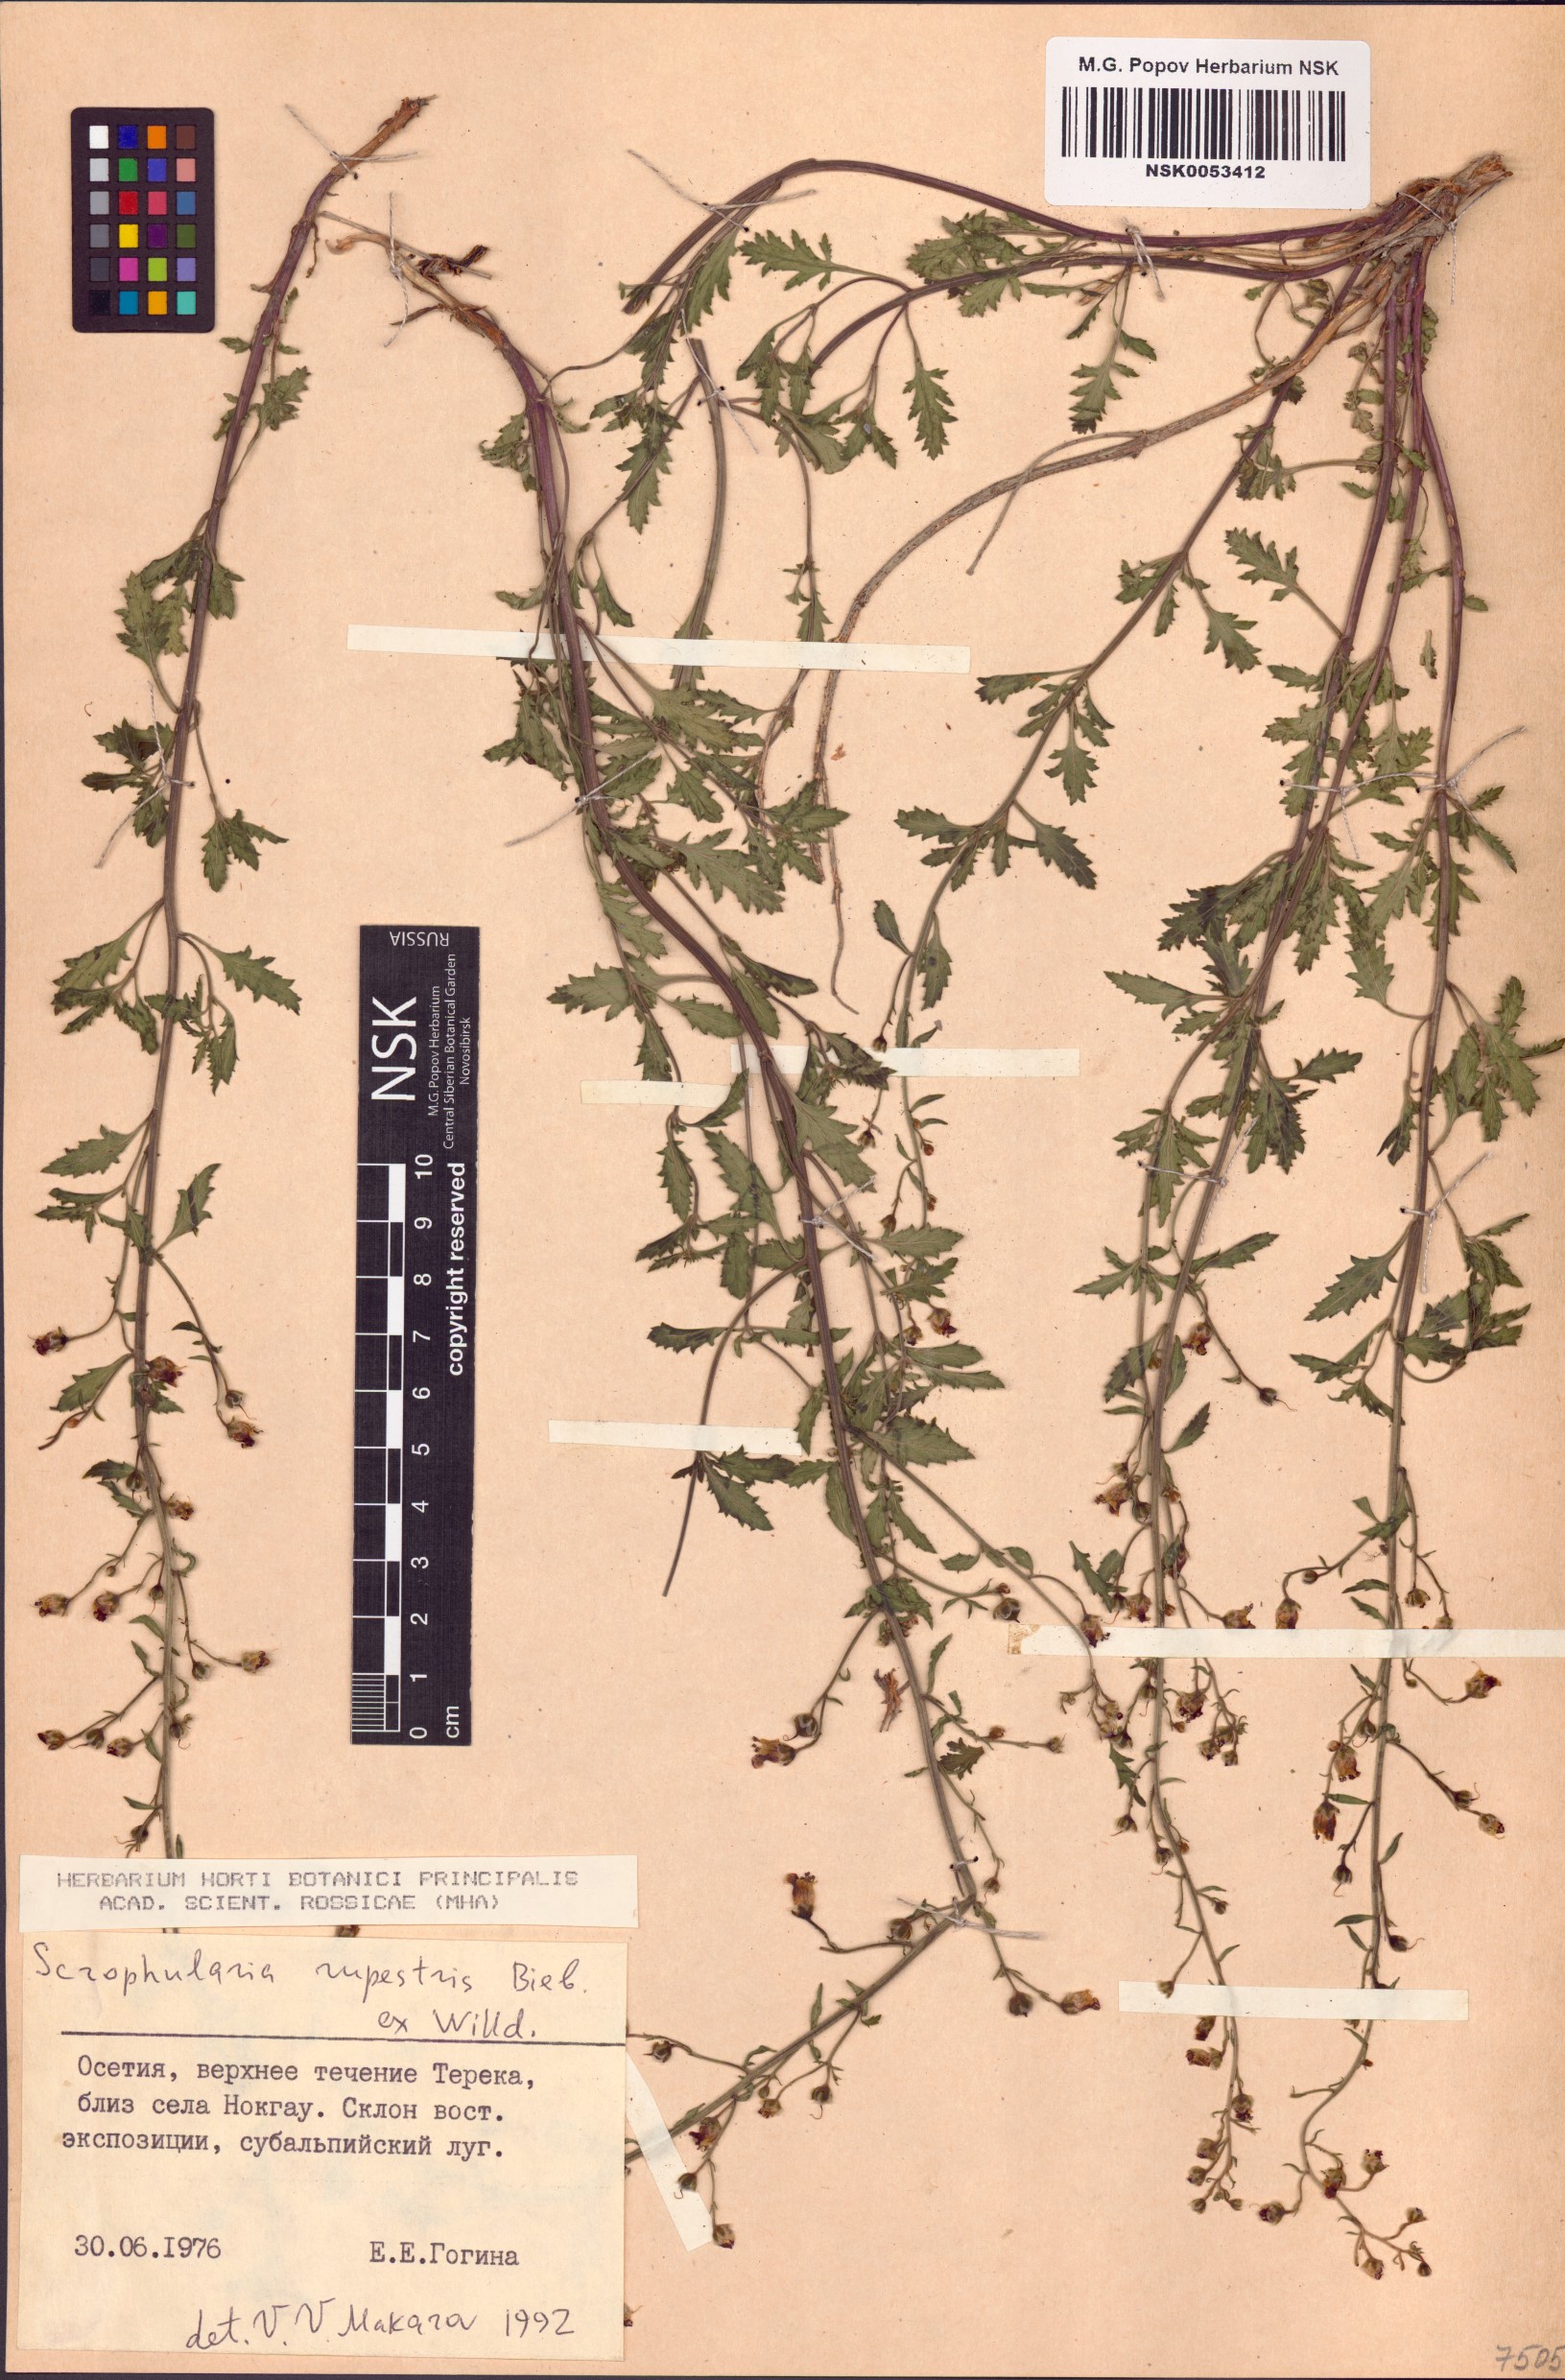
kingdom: Plantae
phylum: Tracheophyta
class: Magnoliopsida
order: Lamiales
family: Scrophulariaceae
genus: Scrophularia
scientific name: Scrophularia rupestris
